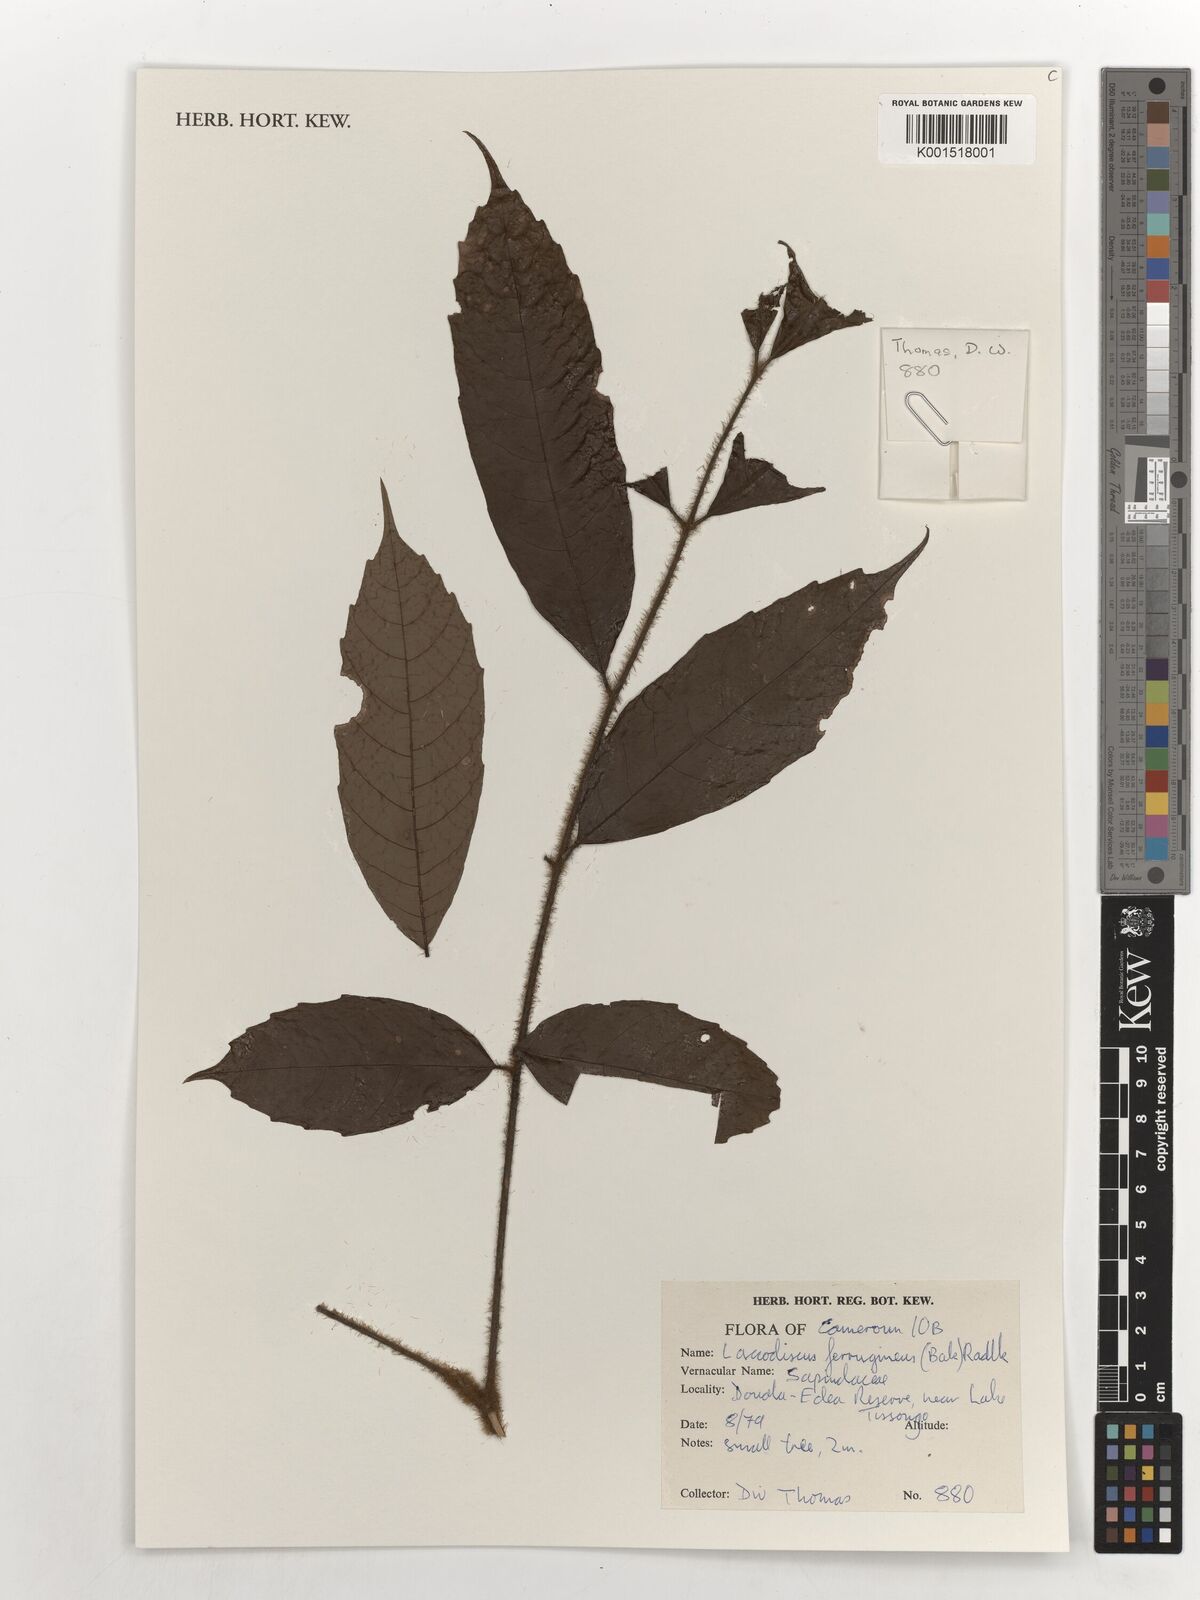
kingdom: Plantae
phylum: Tracheophyta
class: Magnoliopsida
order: Sapindales
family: Sapindaceae
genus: Laccodiscus
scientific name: Laccodiscus ferrugineus
